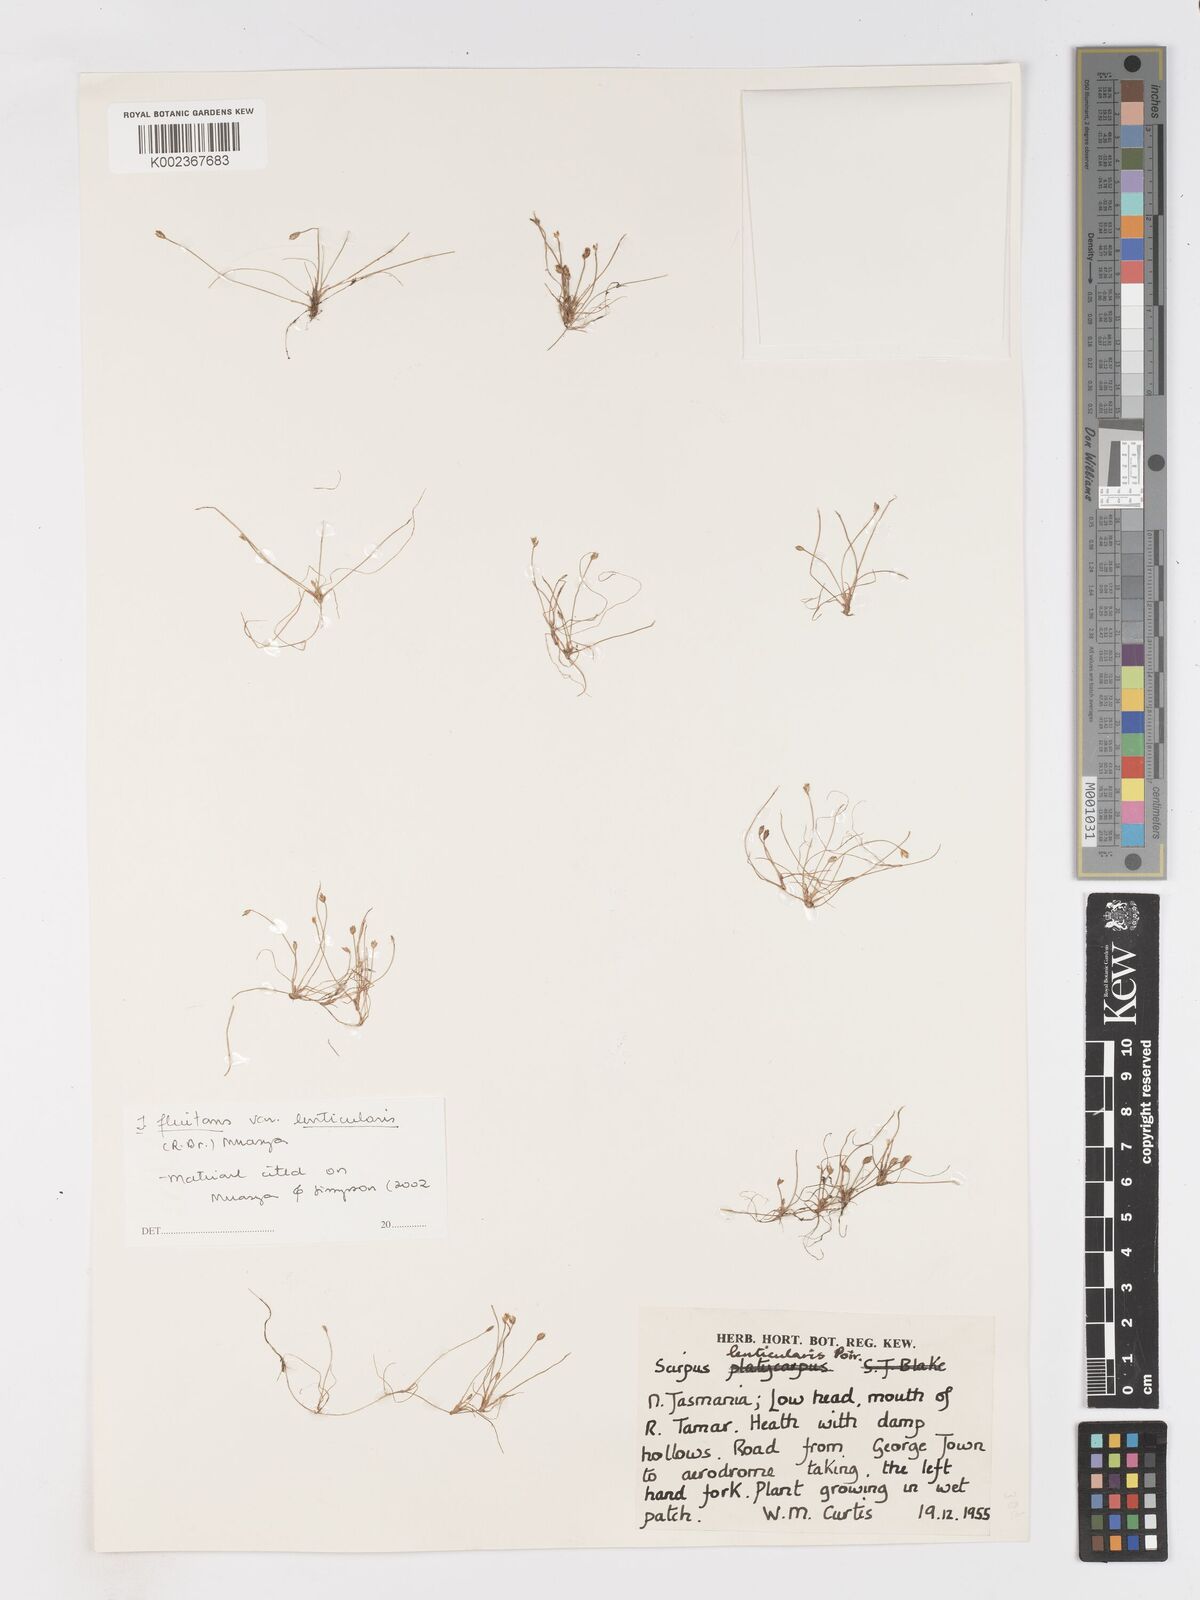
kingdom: Plantae
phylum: Tracheophyta
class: Liliopsida
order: Poales
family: Cyperaceae
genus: Isolepis
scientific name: Isolepis fluitans
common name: Floating club-rush
